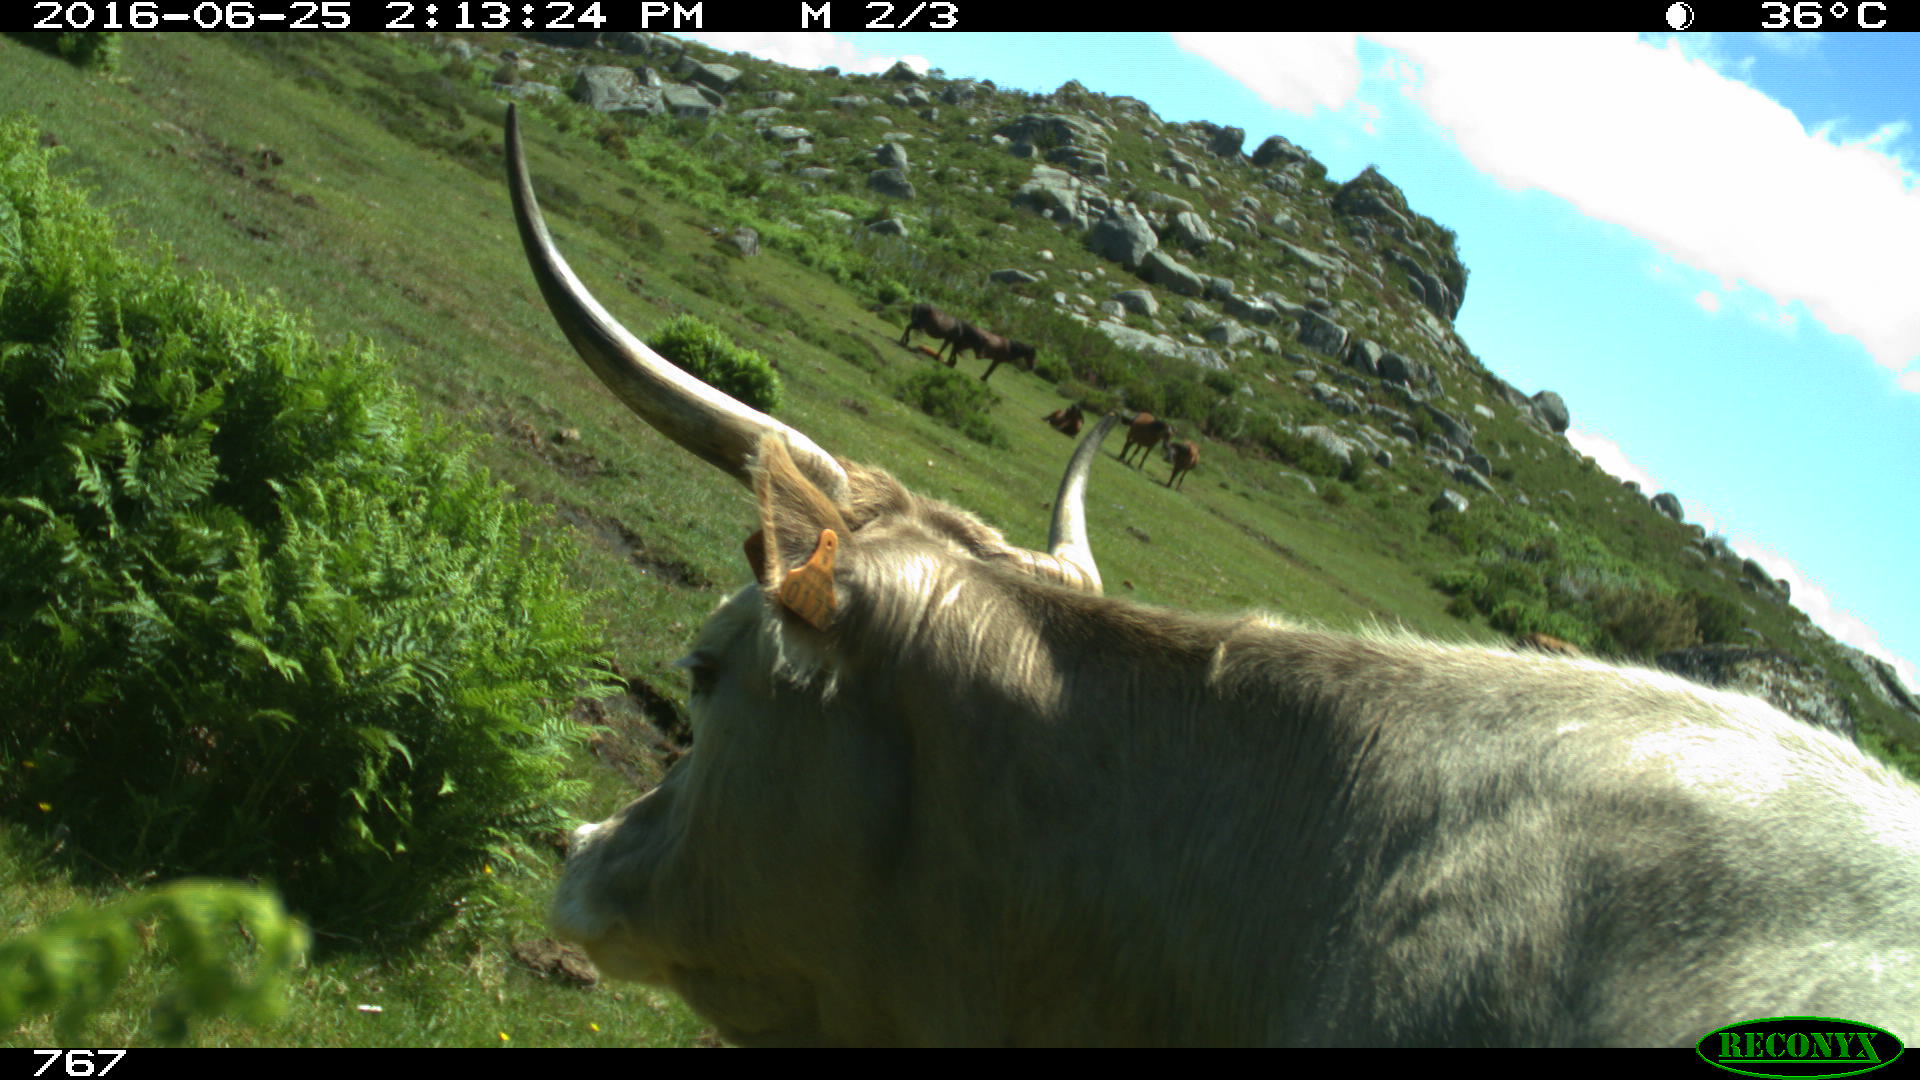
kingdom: Animalia
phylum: Chordata
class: Mammalia
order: Artiodactyla
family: Bovidae
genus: Bos
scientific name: Bos taurus
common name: Domesticated cattle
